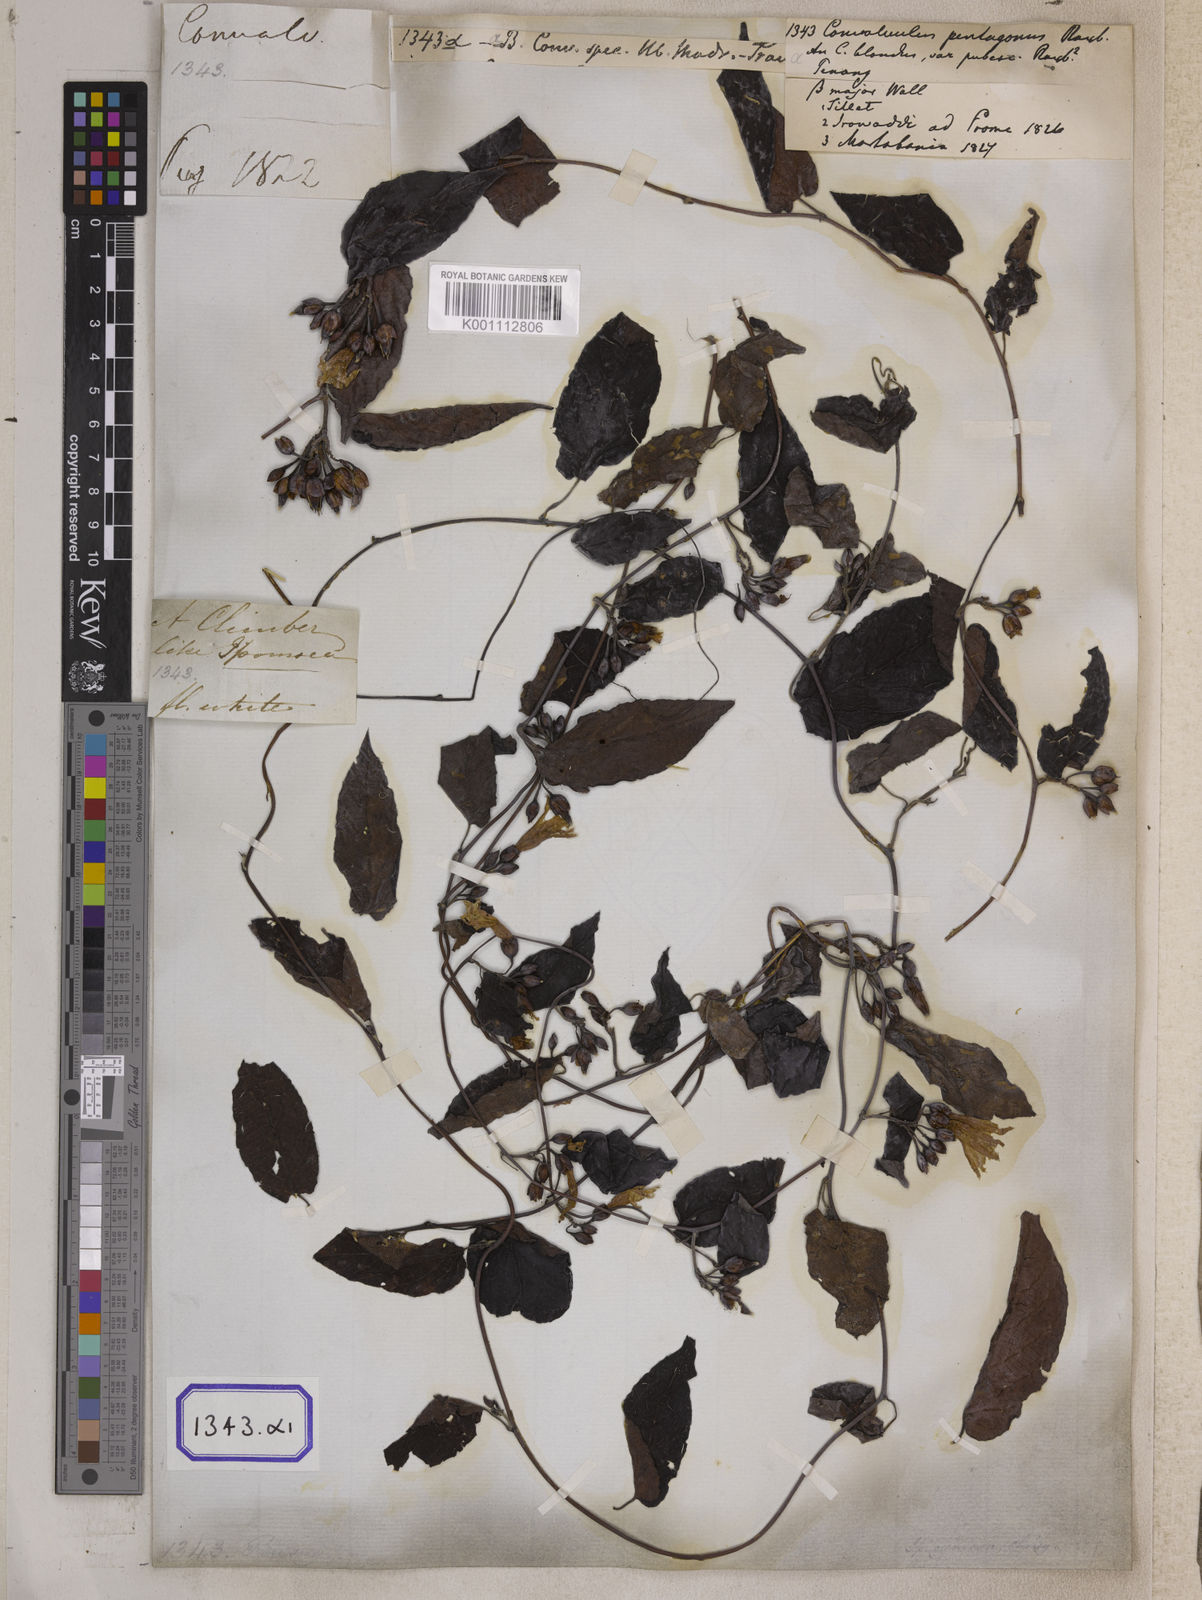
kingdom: Plantae
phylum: Tracheophyta
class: Magnoliopsida
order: Solanales
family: Convolvulaceae
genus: Camonea
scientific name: Camonea umbellata
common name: Hogvine
